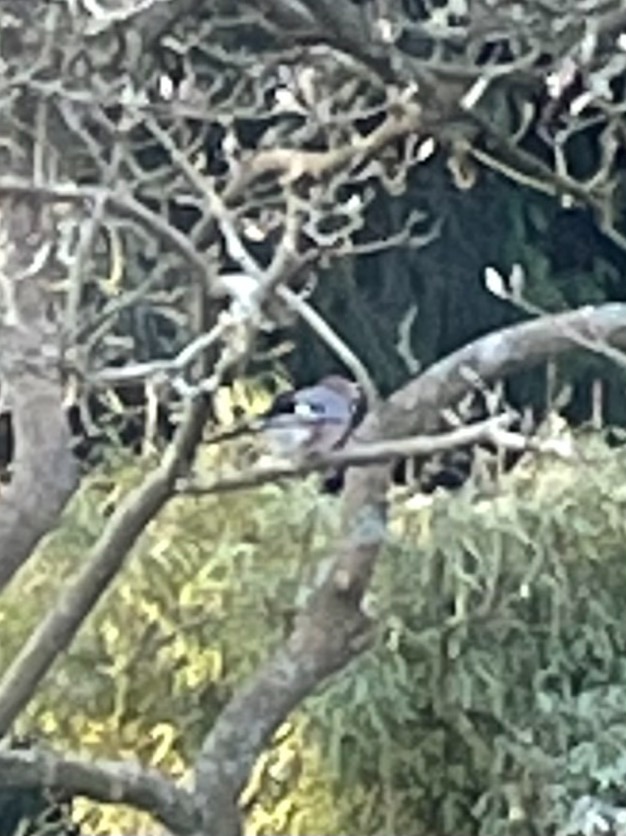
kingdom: Animalia
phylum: Chordata
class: Aves
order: Passeriformes
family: Corvidae
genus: Garrulus
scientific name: Garrulus glandarius
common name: Skovskade
